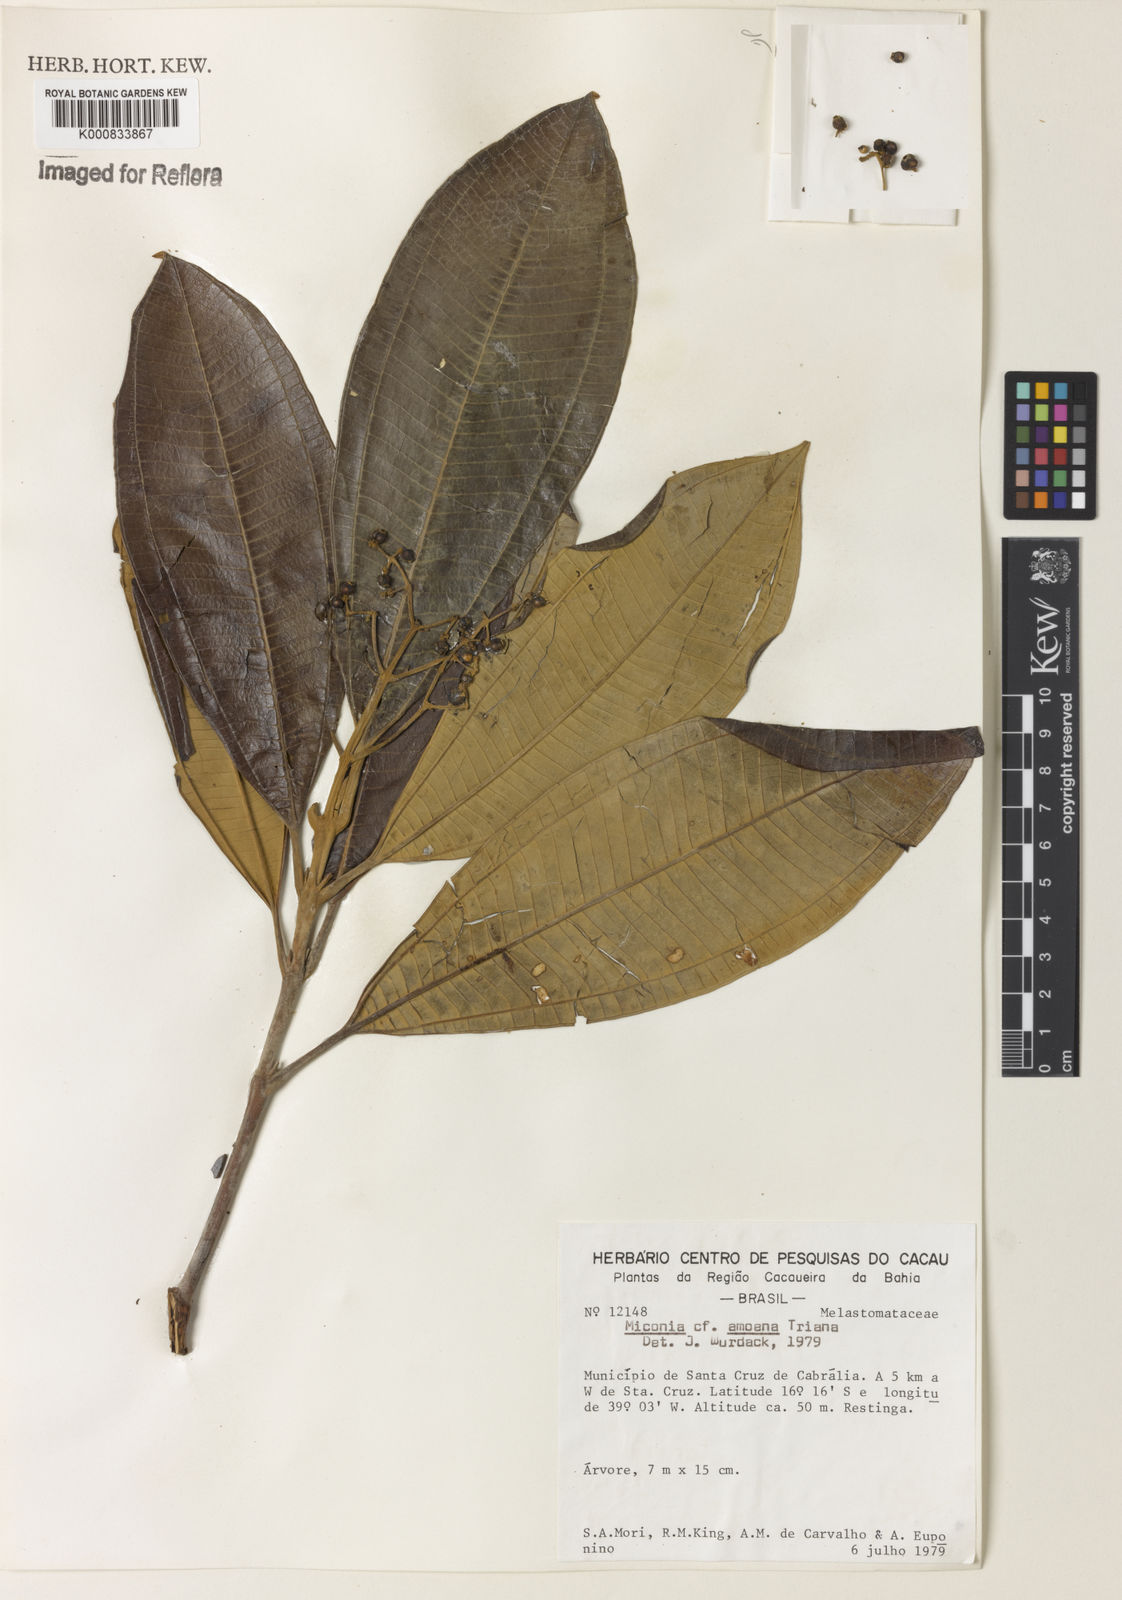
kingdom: Plantae
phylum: Tracheophyta
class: Magnoliopsida
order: Myrtales
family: Melastomataceae
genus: Miconia
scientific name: Miconia amoena
